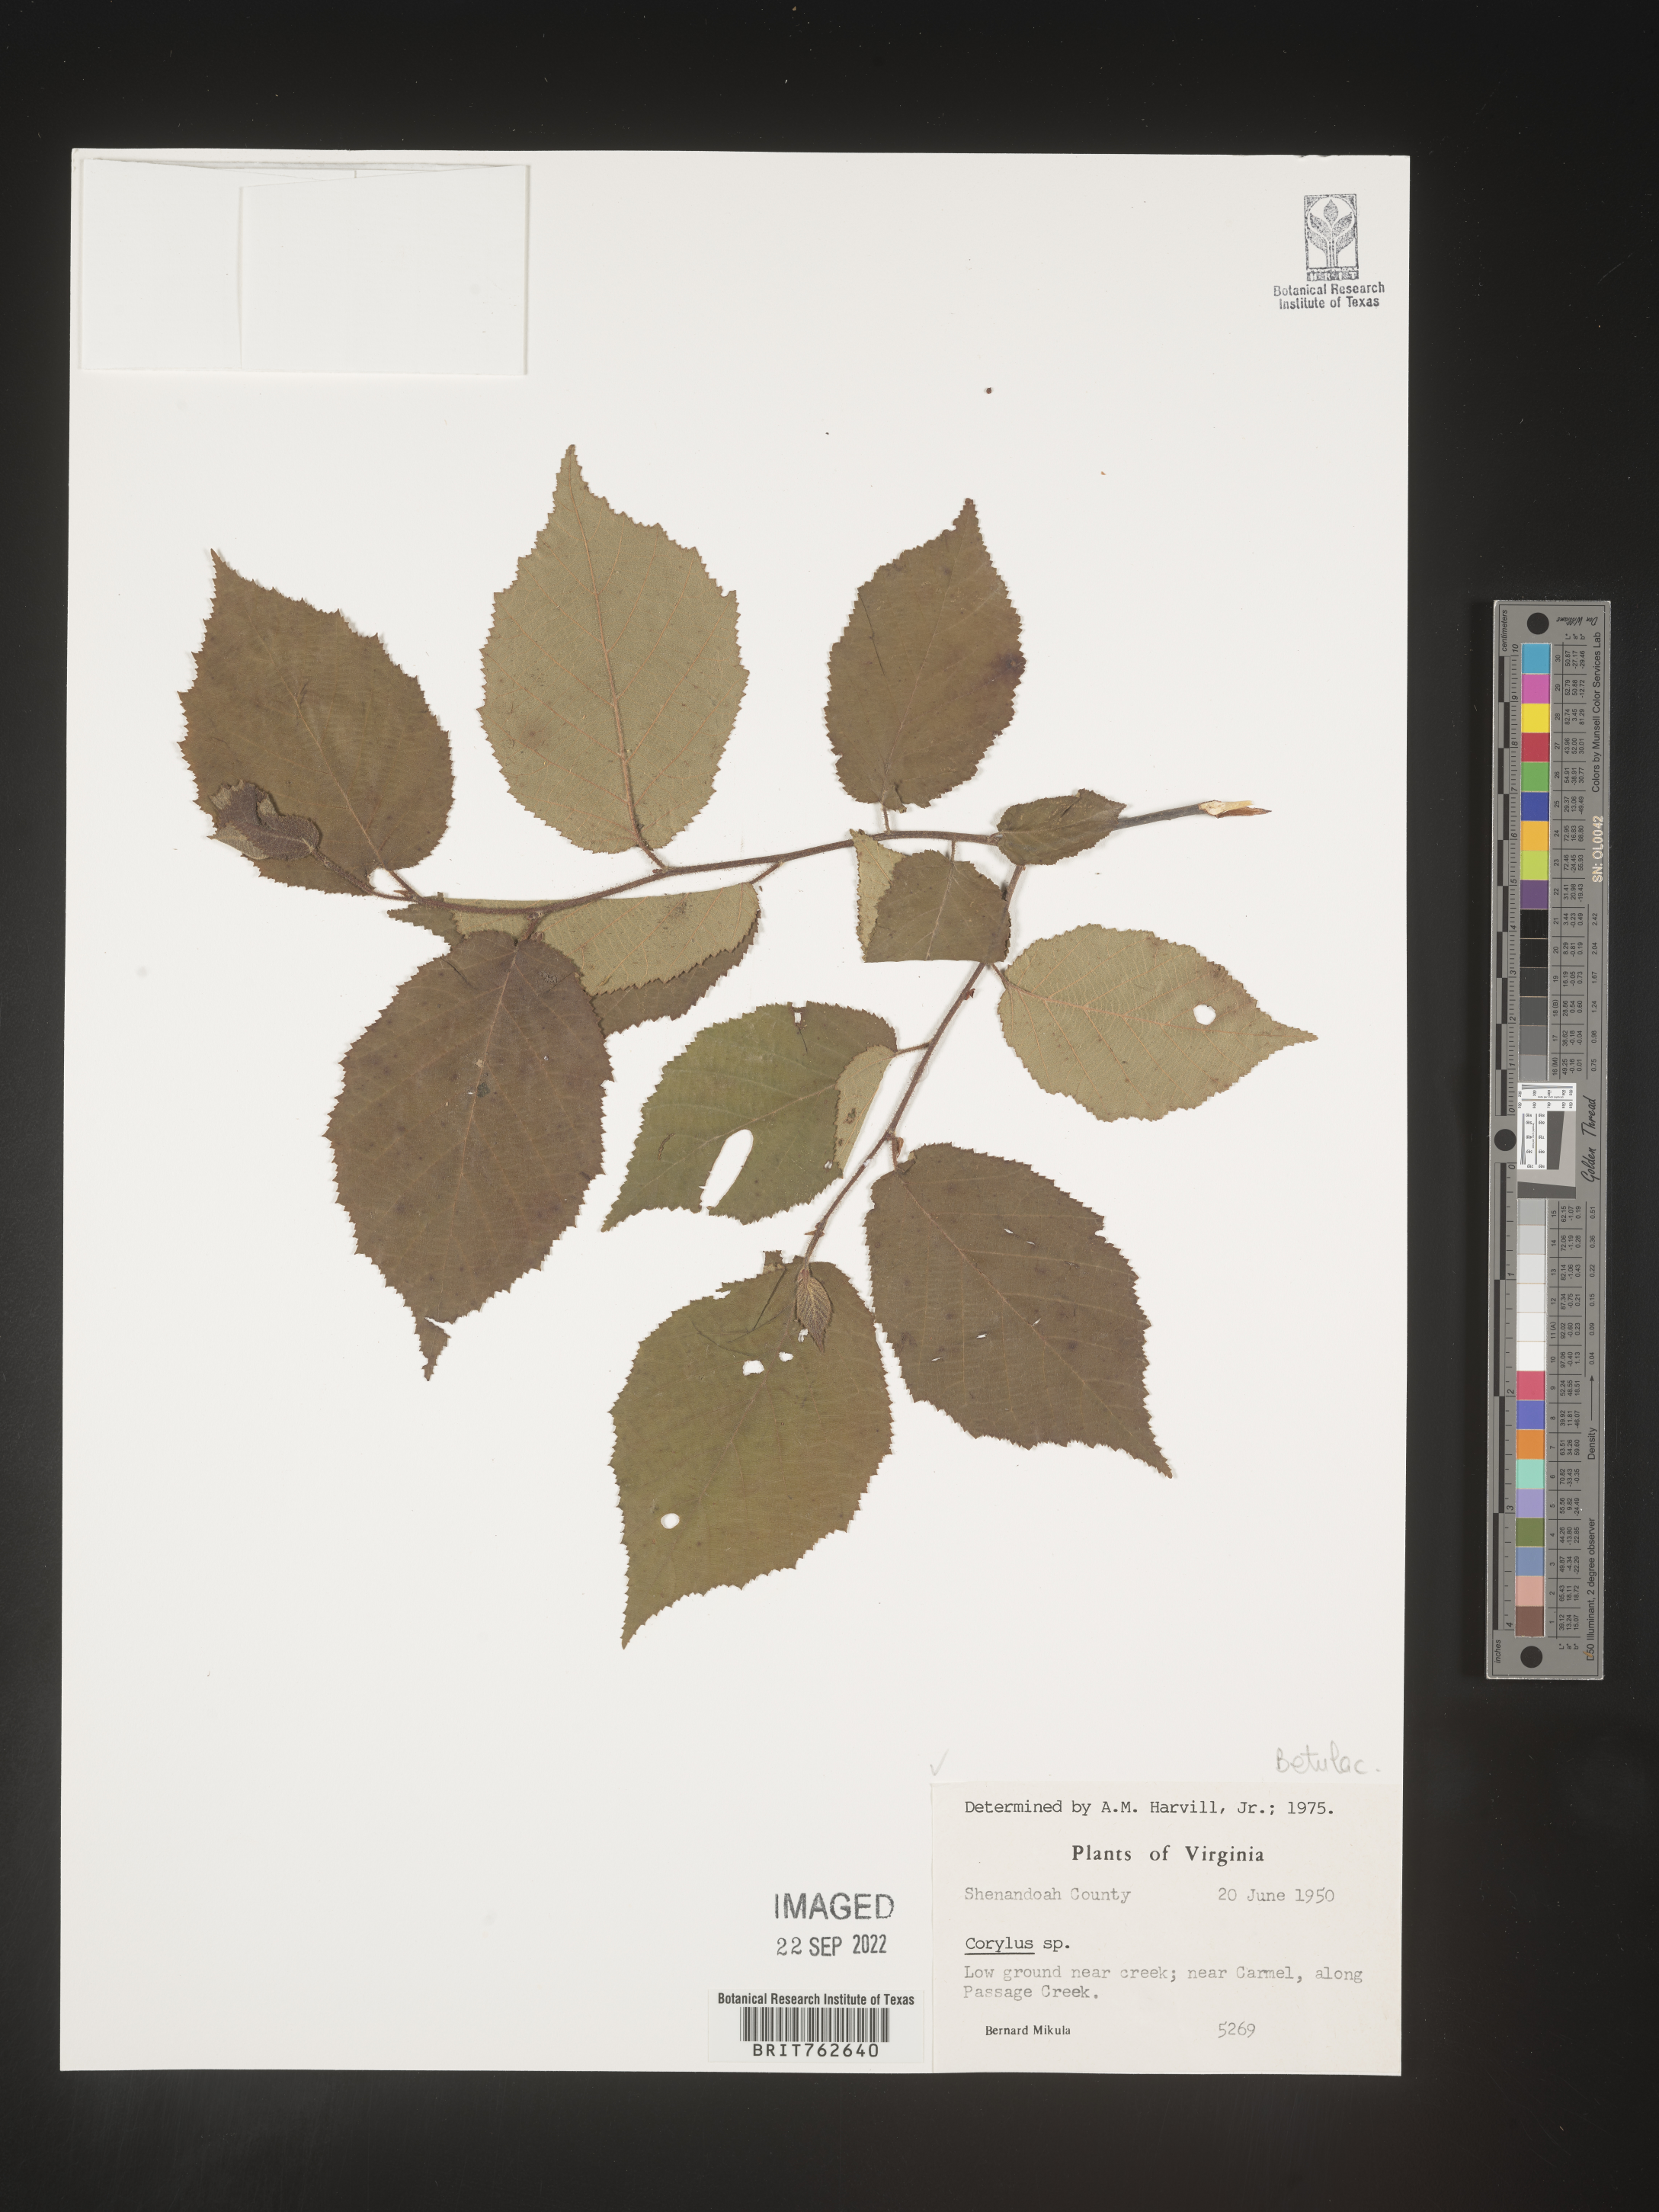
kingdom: Plantae
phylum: Tracheophyta
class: Magnoliopsida
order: Fagales
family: Betulaceae
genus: Corylus
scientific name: Corylus
